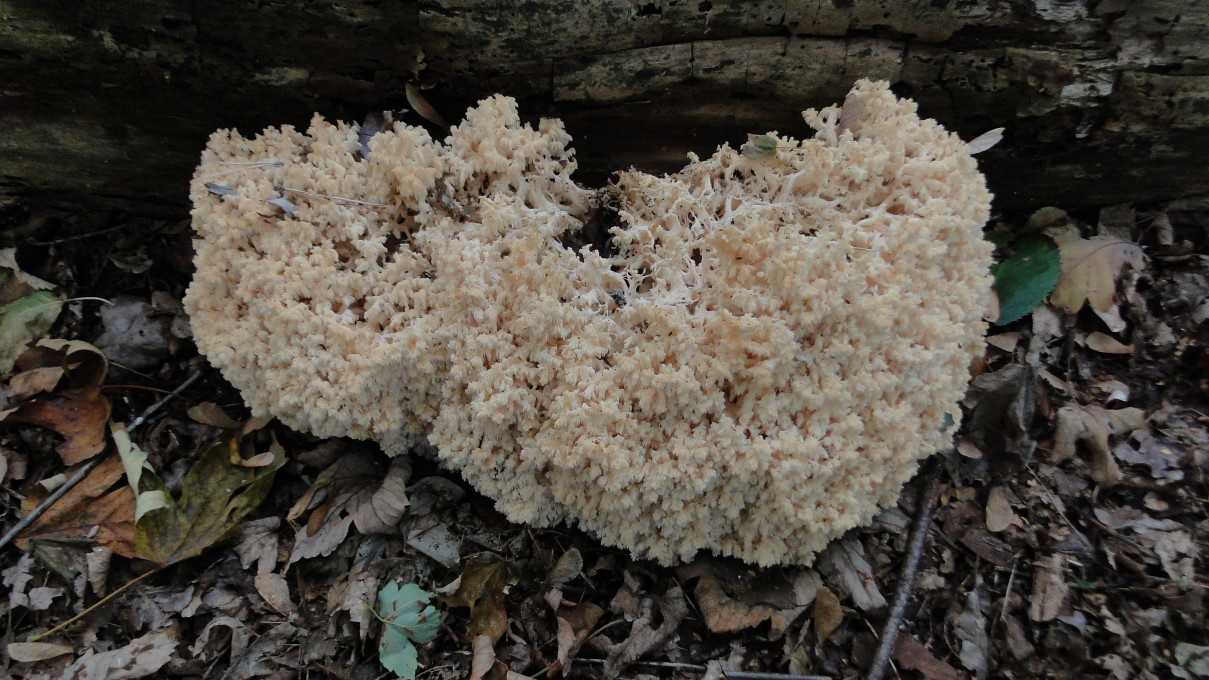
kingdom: Fungi
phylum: Basidiomycota
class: Agaricomycetes
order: Russulales
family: Hericiaceae
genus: Hericium
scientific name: Hericium coralloides
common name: koralpigsvamp
